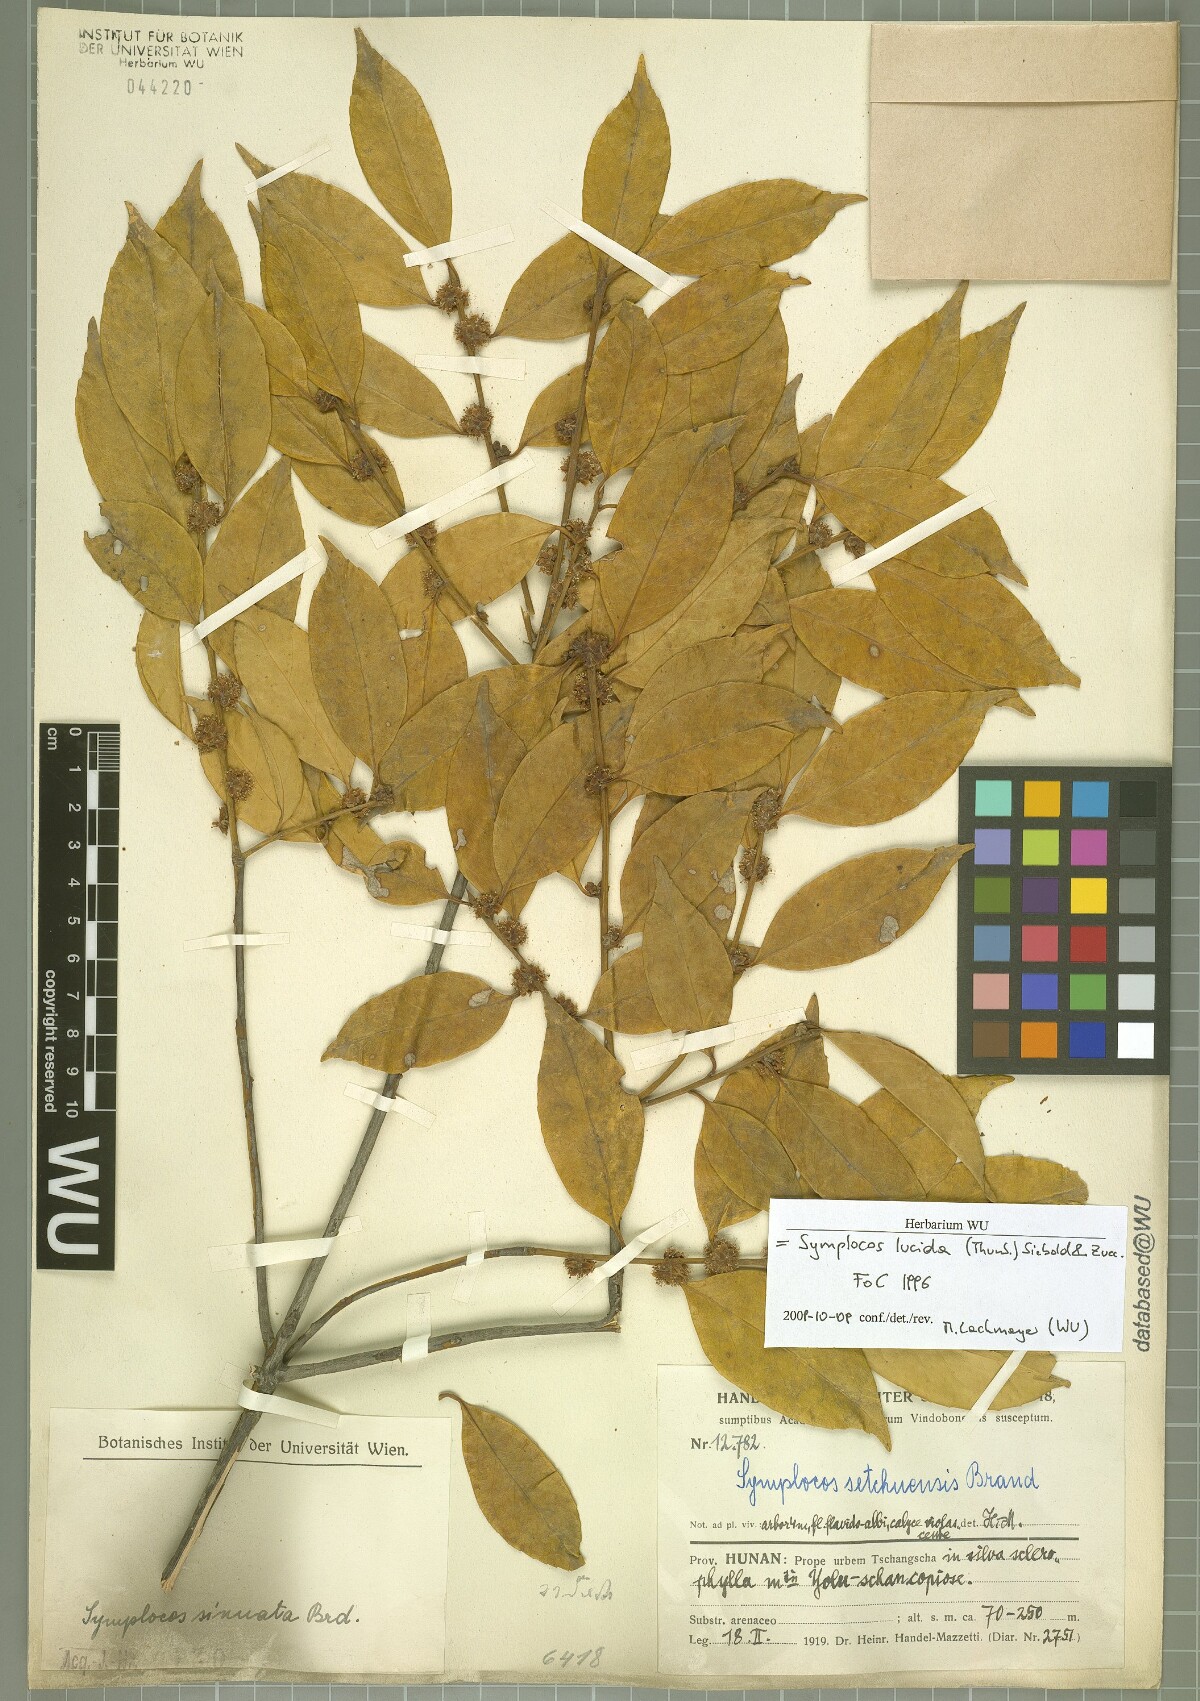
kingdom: Plantae
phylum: Tracheophyta
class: Magnoliopsida
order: Ericales
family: Symplocaceae
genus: Symplocos
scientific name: Symplocos nakaharae
